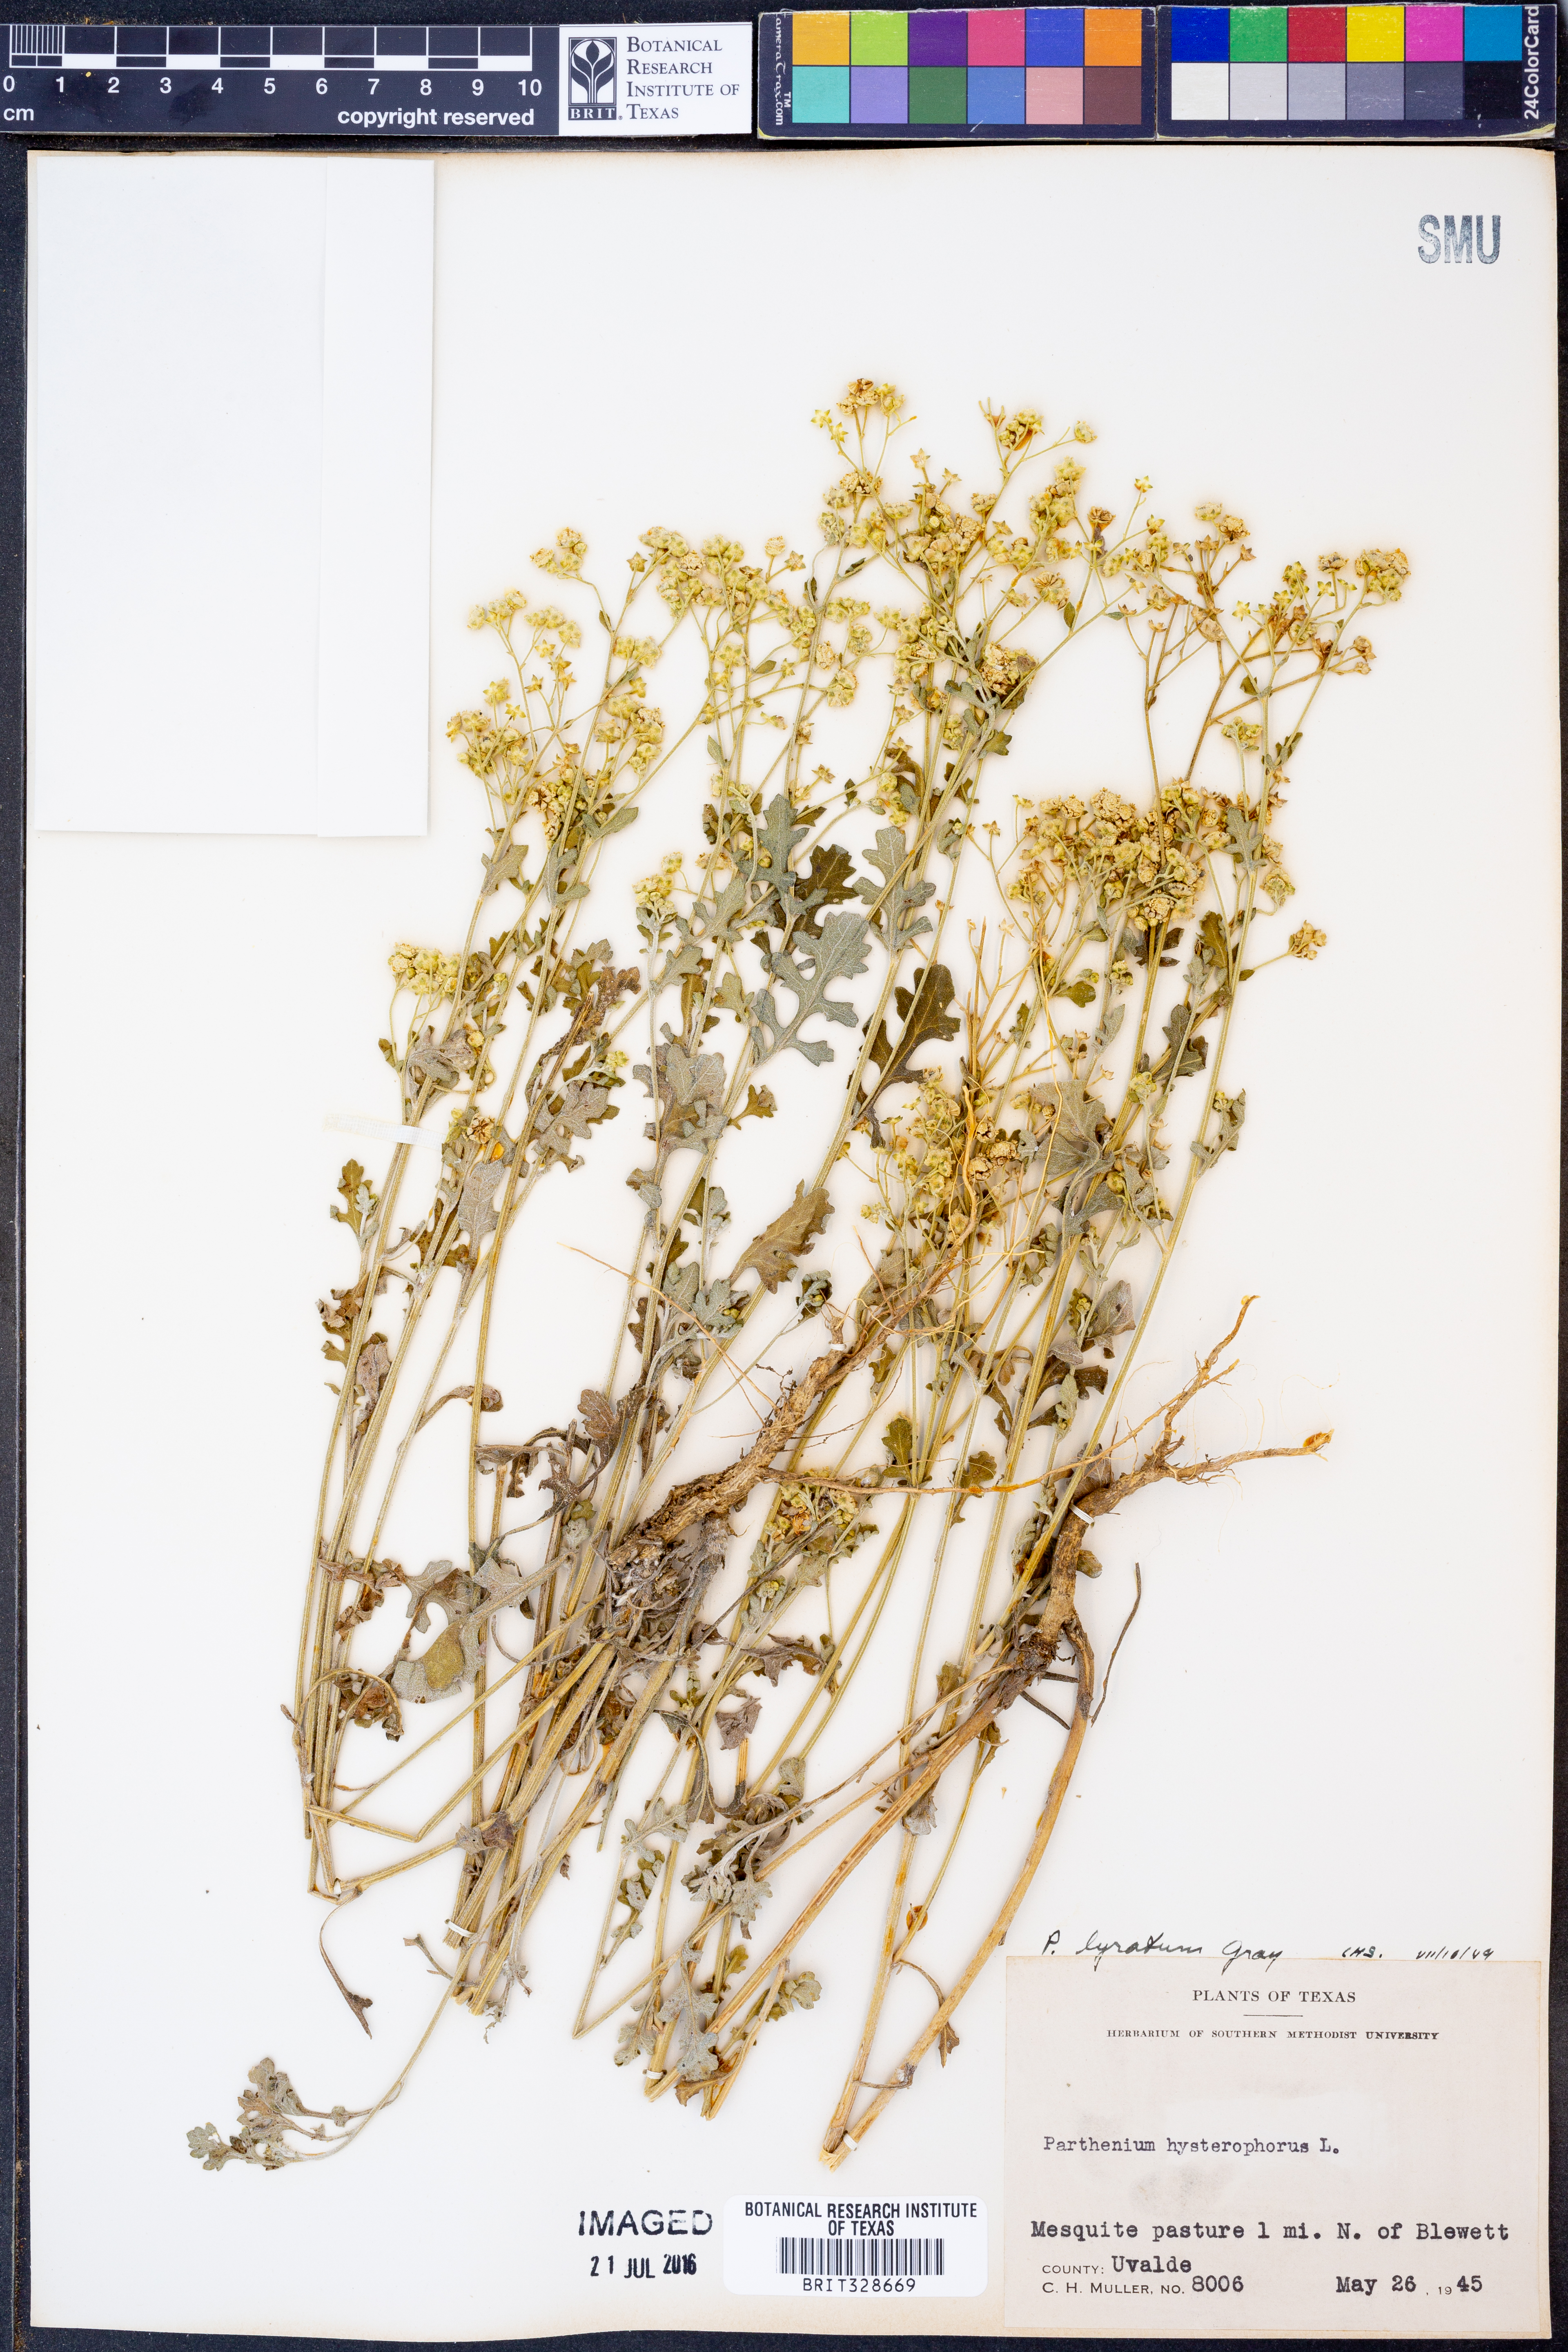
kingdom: Plantae
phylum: Tracheophyta
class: Magnoliopsida
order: Asterales
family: Asteraceae
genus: Parthenium
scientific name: Parthenium confertum
